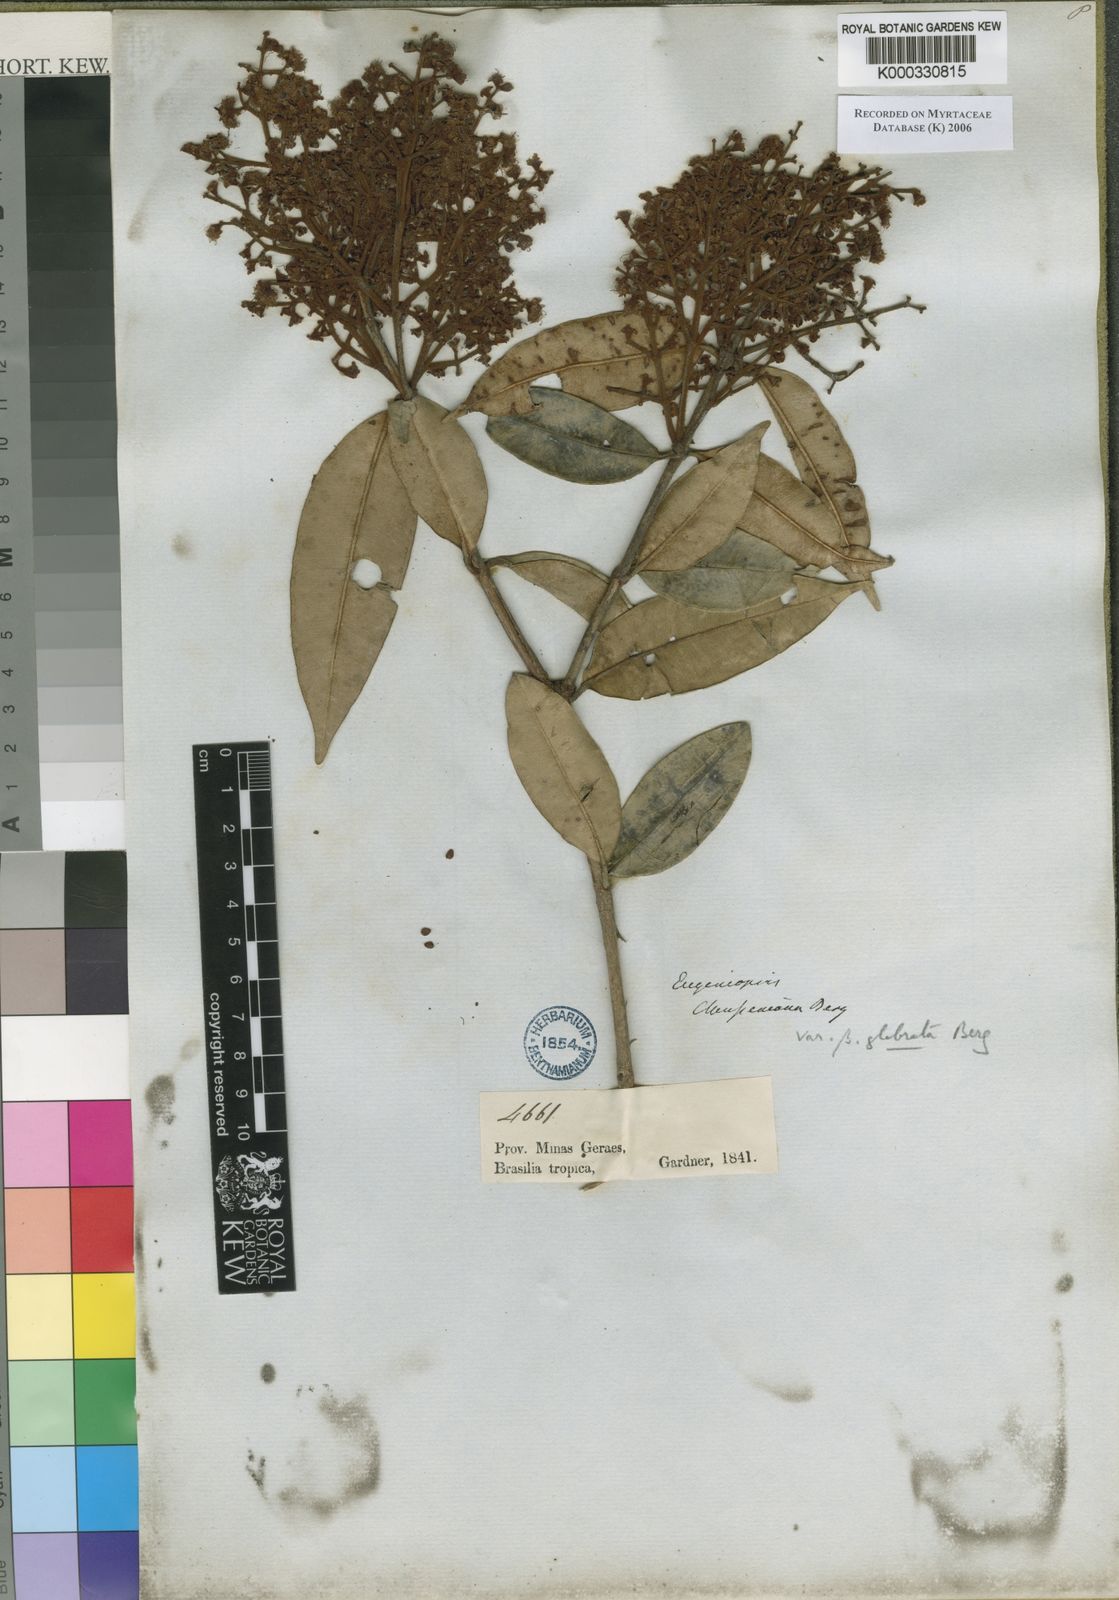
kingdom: Plantae
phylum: Tracheophyta
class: Magnoliopsida
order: Myrtales
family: Myrtaceae
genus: Marlierea
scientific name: Marlierea clausseniana
